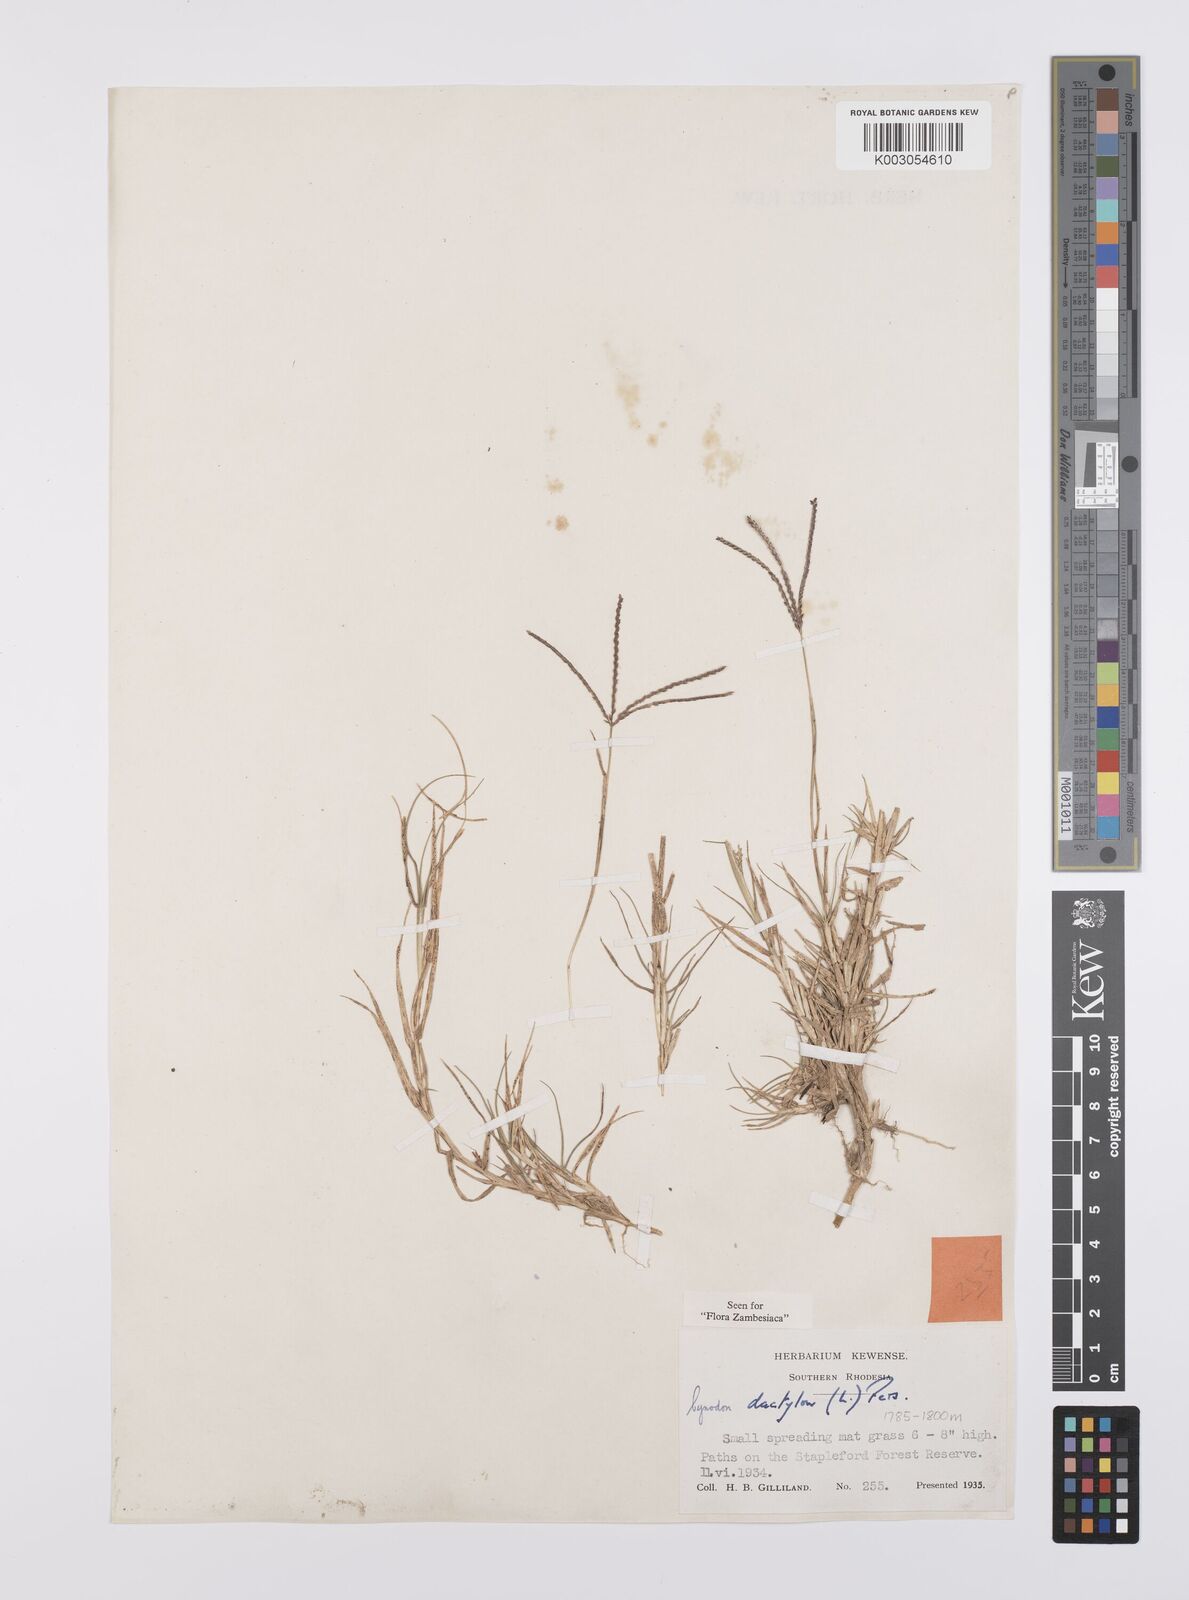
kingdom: Plantae
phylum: Tracheophyta
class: Liliopsida
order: Poales
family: Poaceae
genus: Cynodon
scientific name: Cynodon dactylon
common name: Bermuda grass
